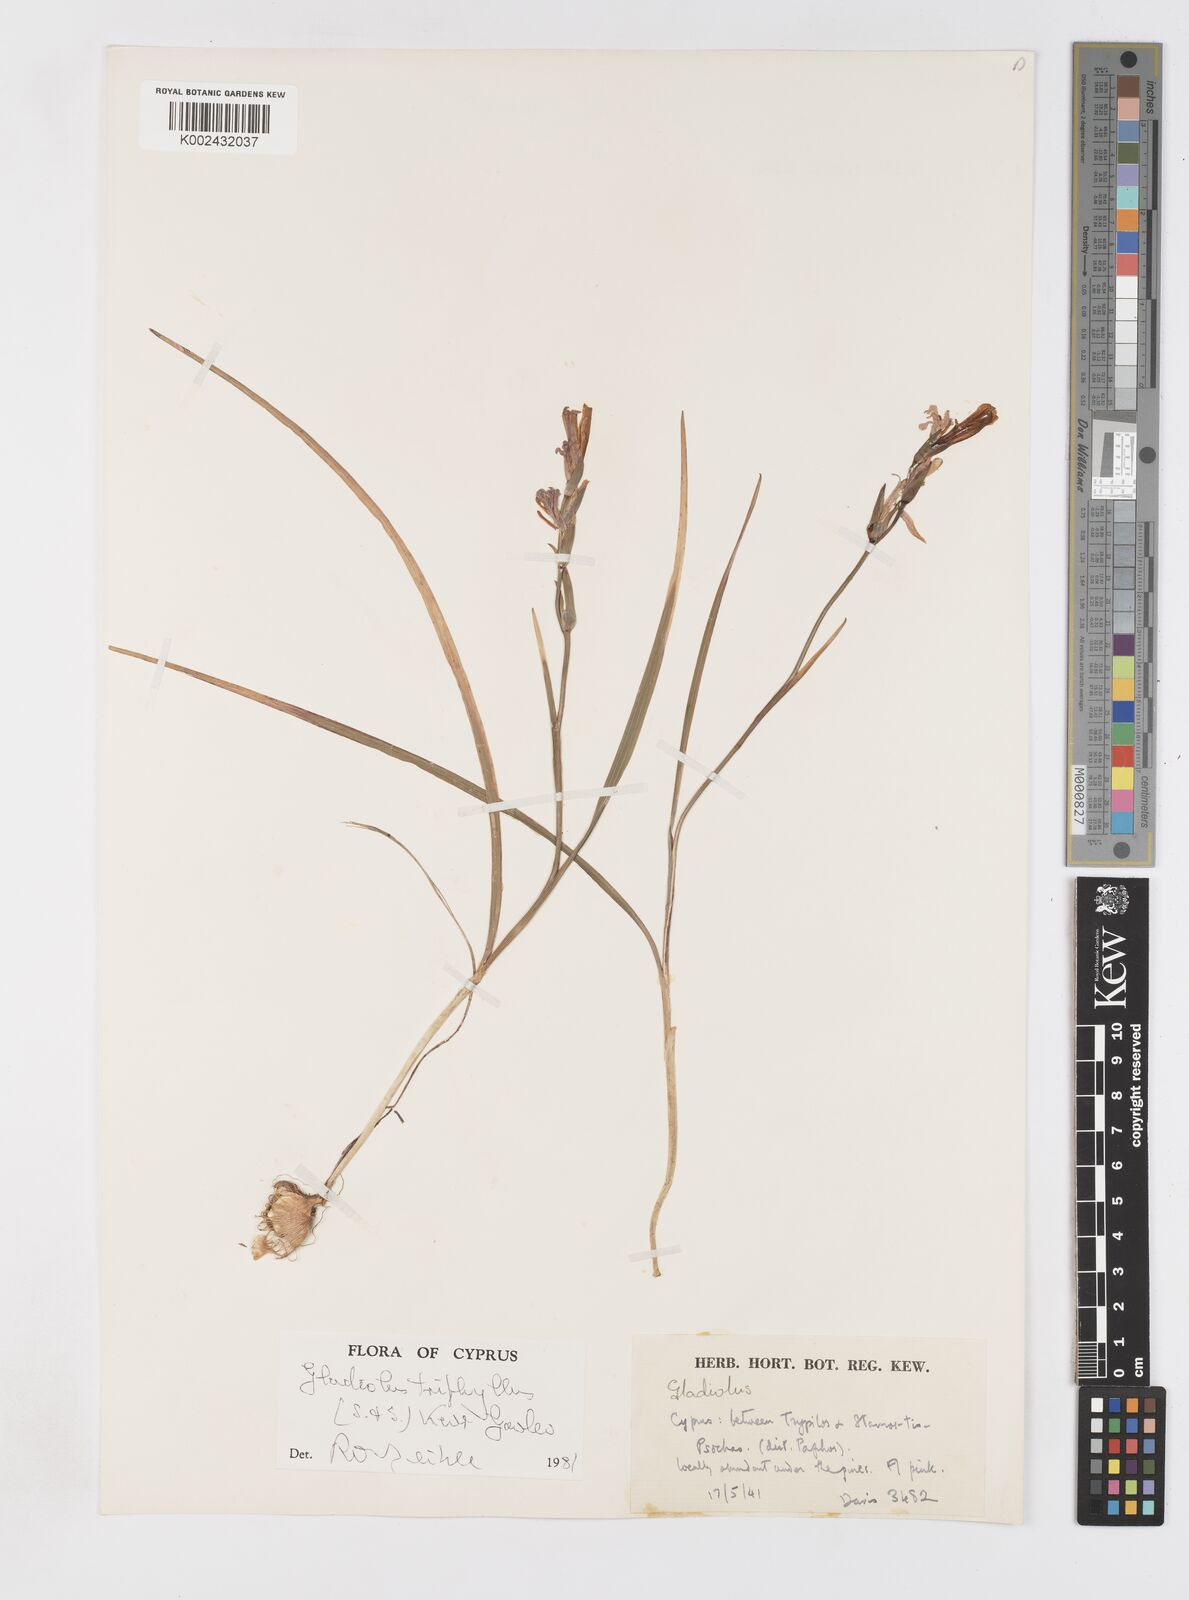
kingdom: Plantae
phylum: Tracheophyta
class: Liliopsida
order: Asparagales
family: Iridaceae
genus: Gladiolus
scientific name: Gladiolus triphyllus
